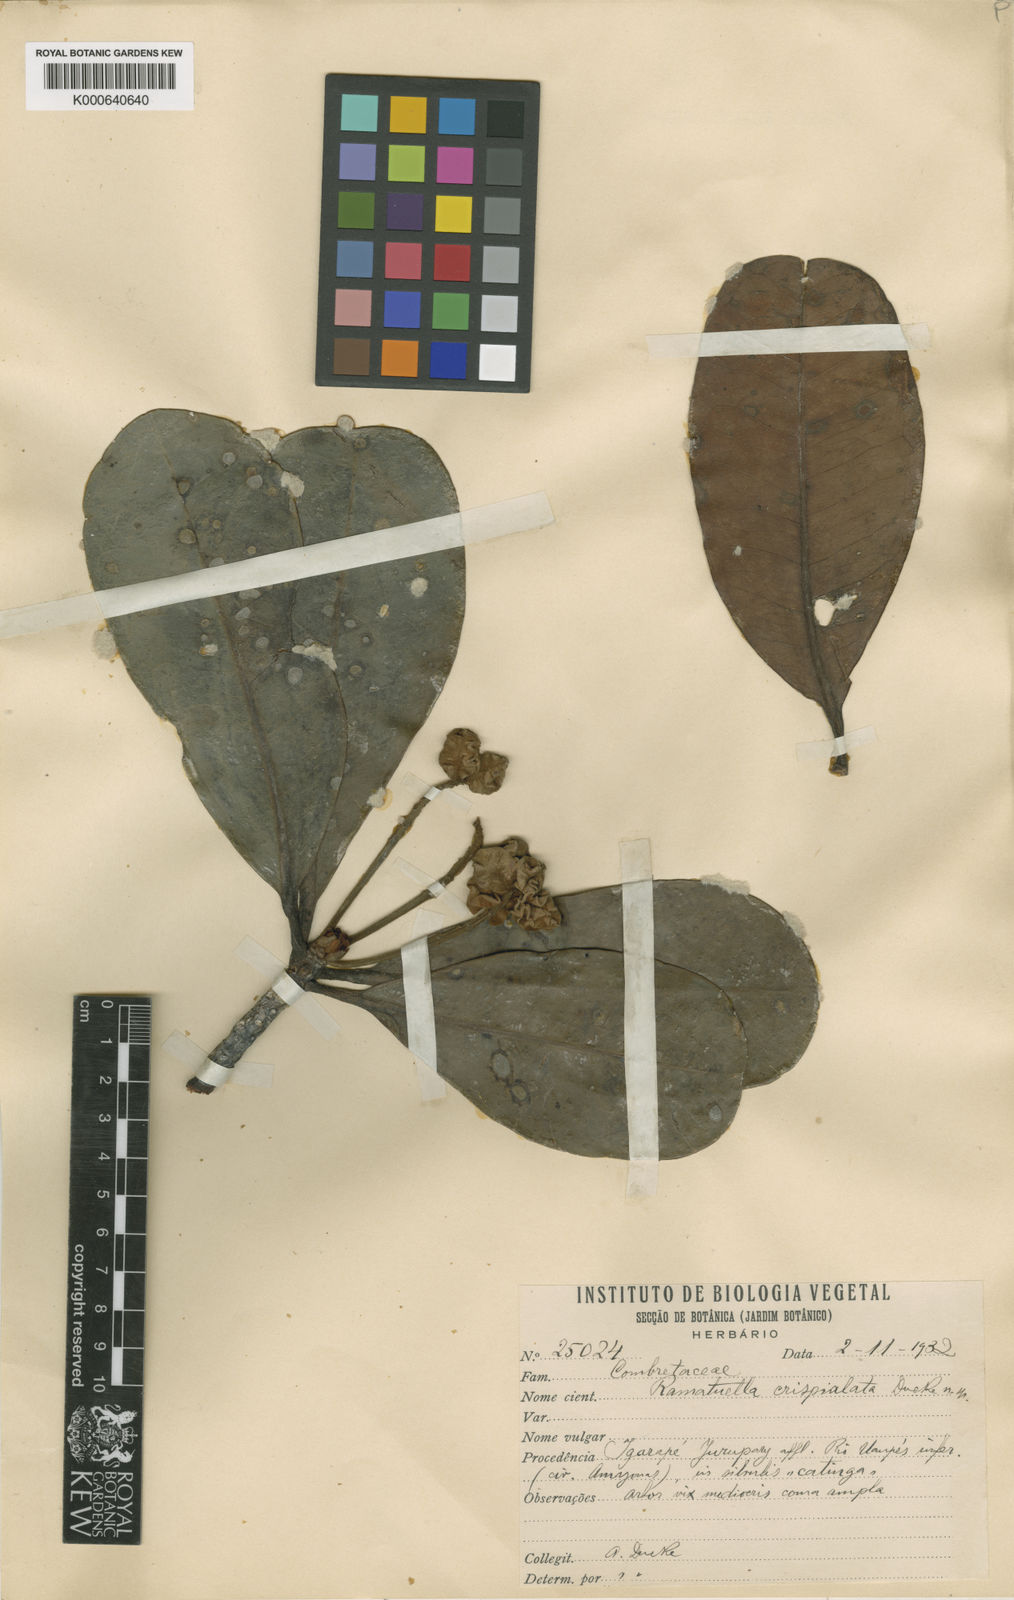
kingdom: Plantae
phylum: Tracheophyta
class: Magnoliopsida
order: Myrtales
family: Combretaceae
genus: Terminalia
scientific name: Terminalia crispialata
